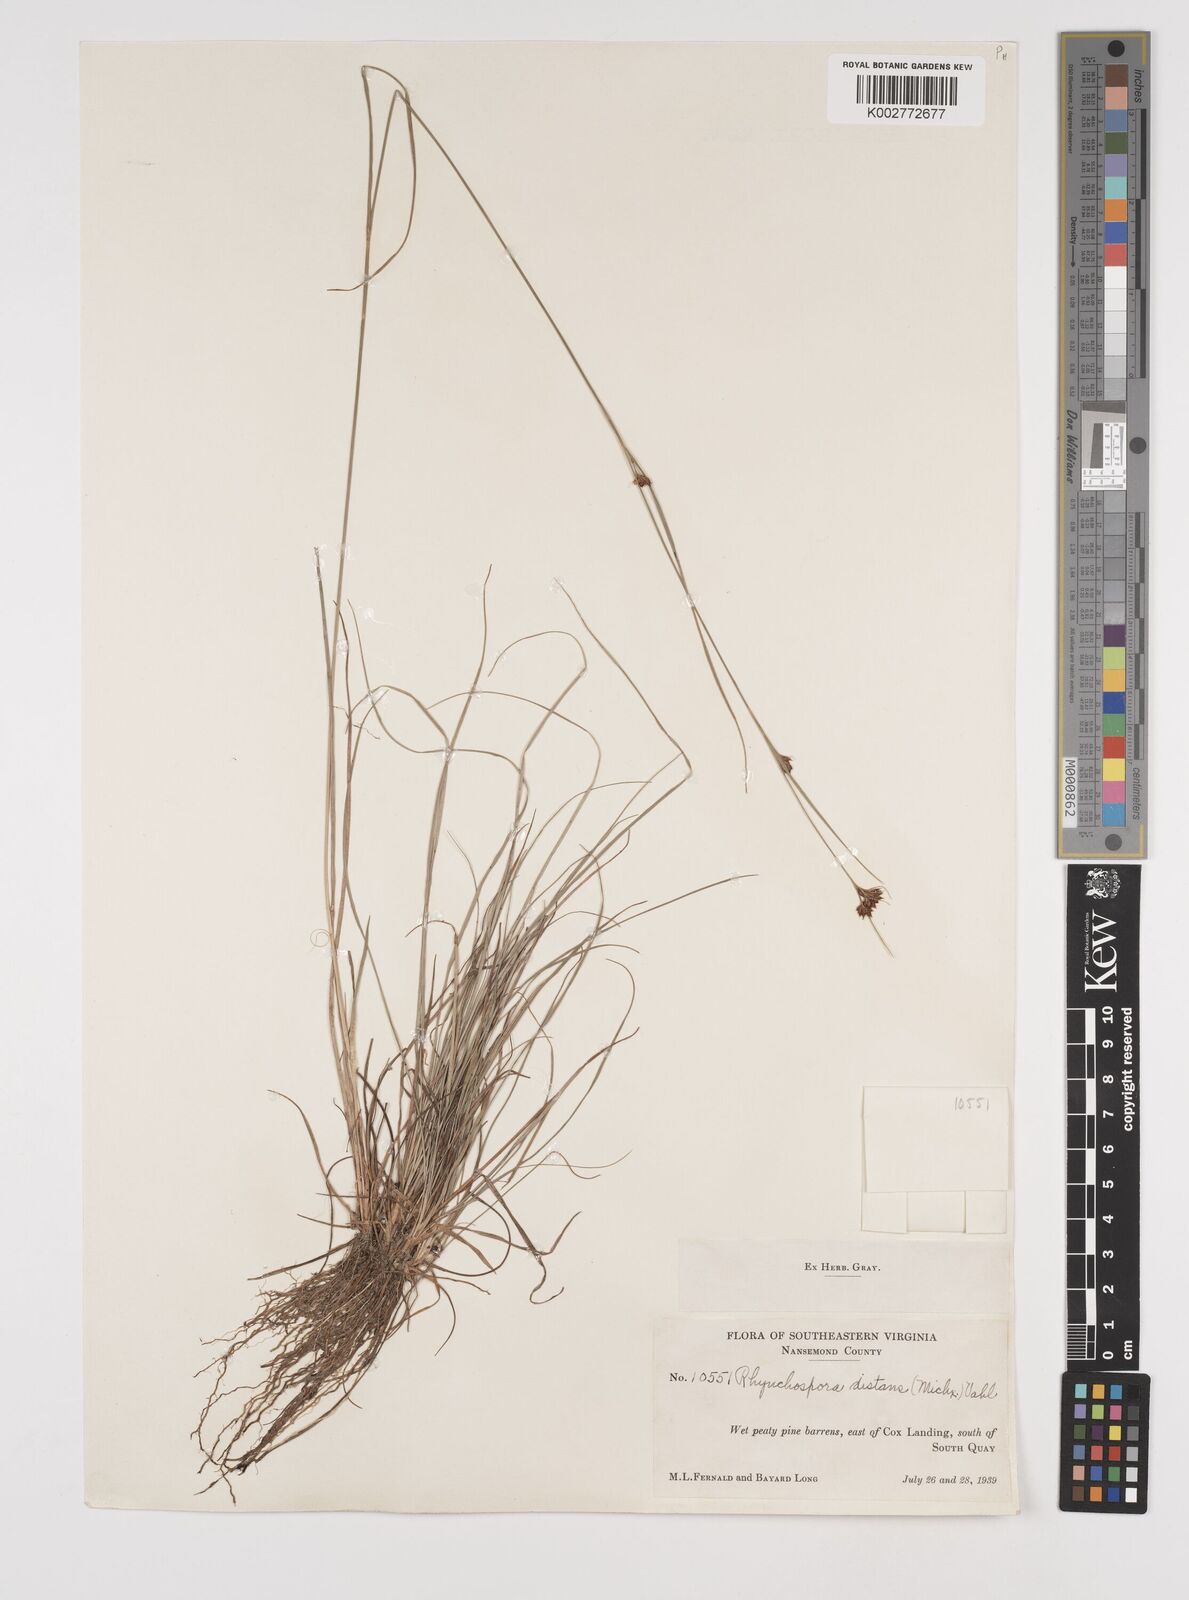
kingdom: Plantae
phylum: Tracheophyta
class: Liliopsida
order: Poales
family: Cyperaceae
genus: Rhynchospora
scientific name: Rhynchospora fascicularis
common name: Fascicled beak sedge
